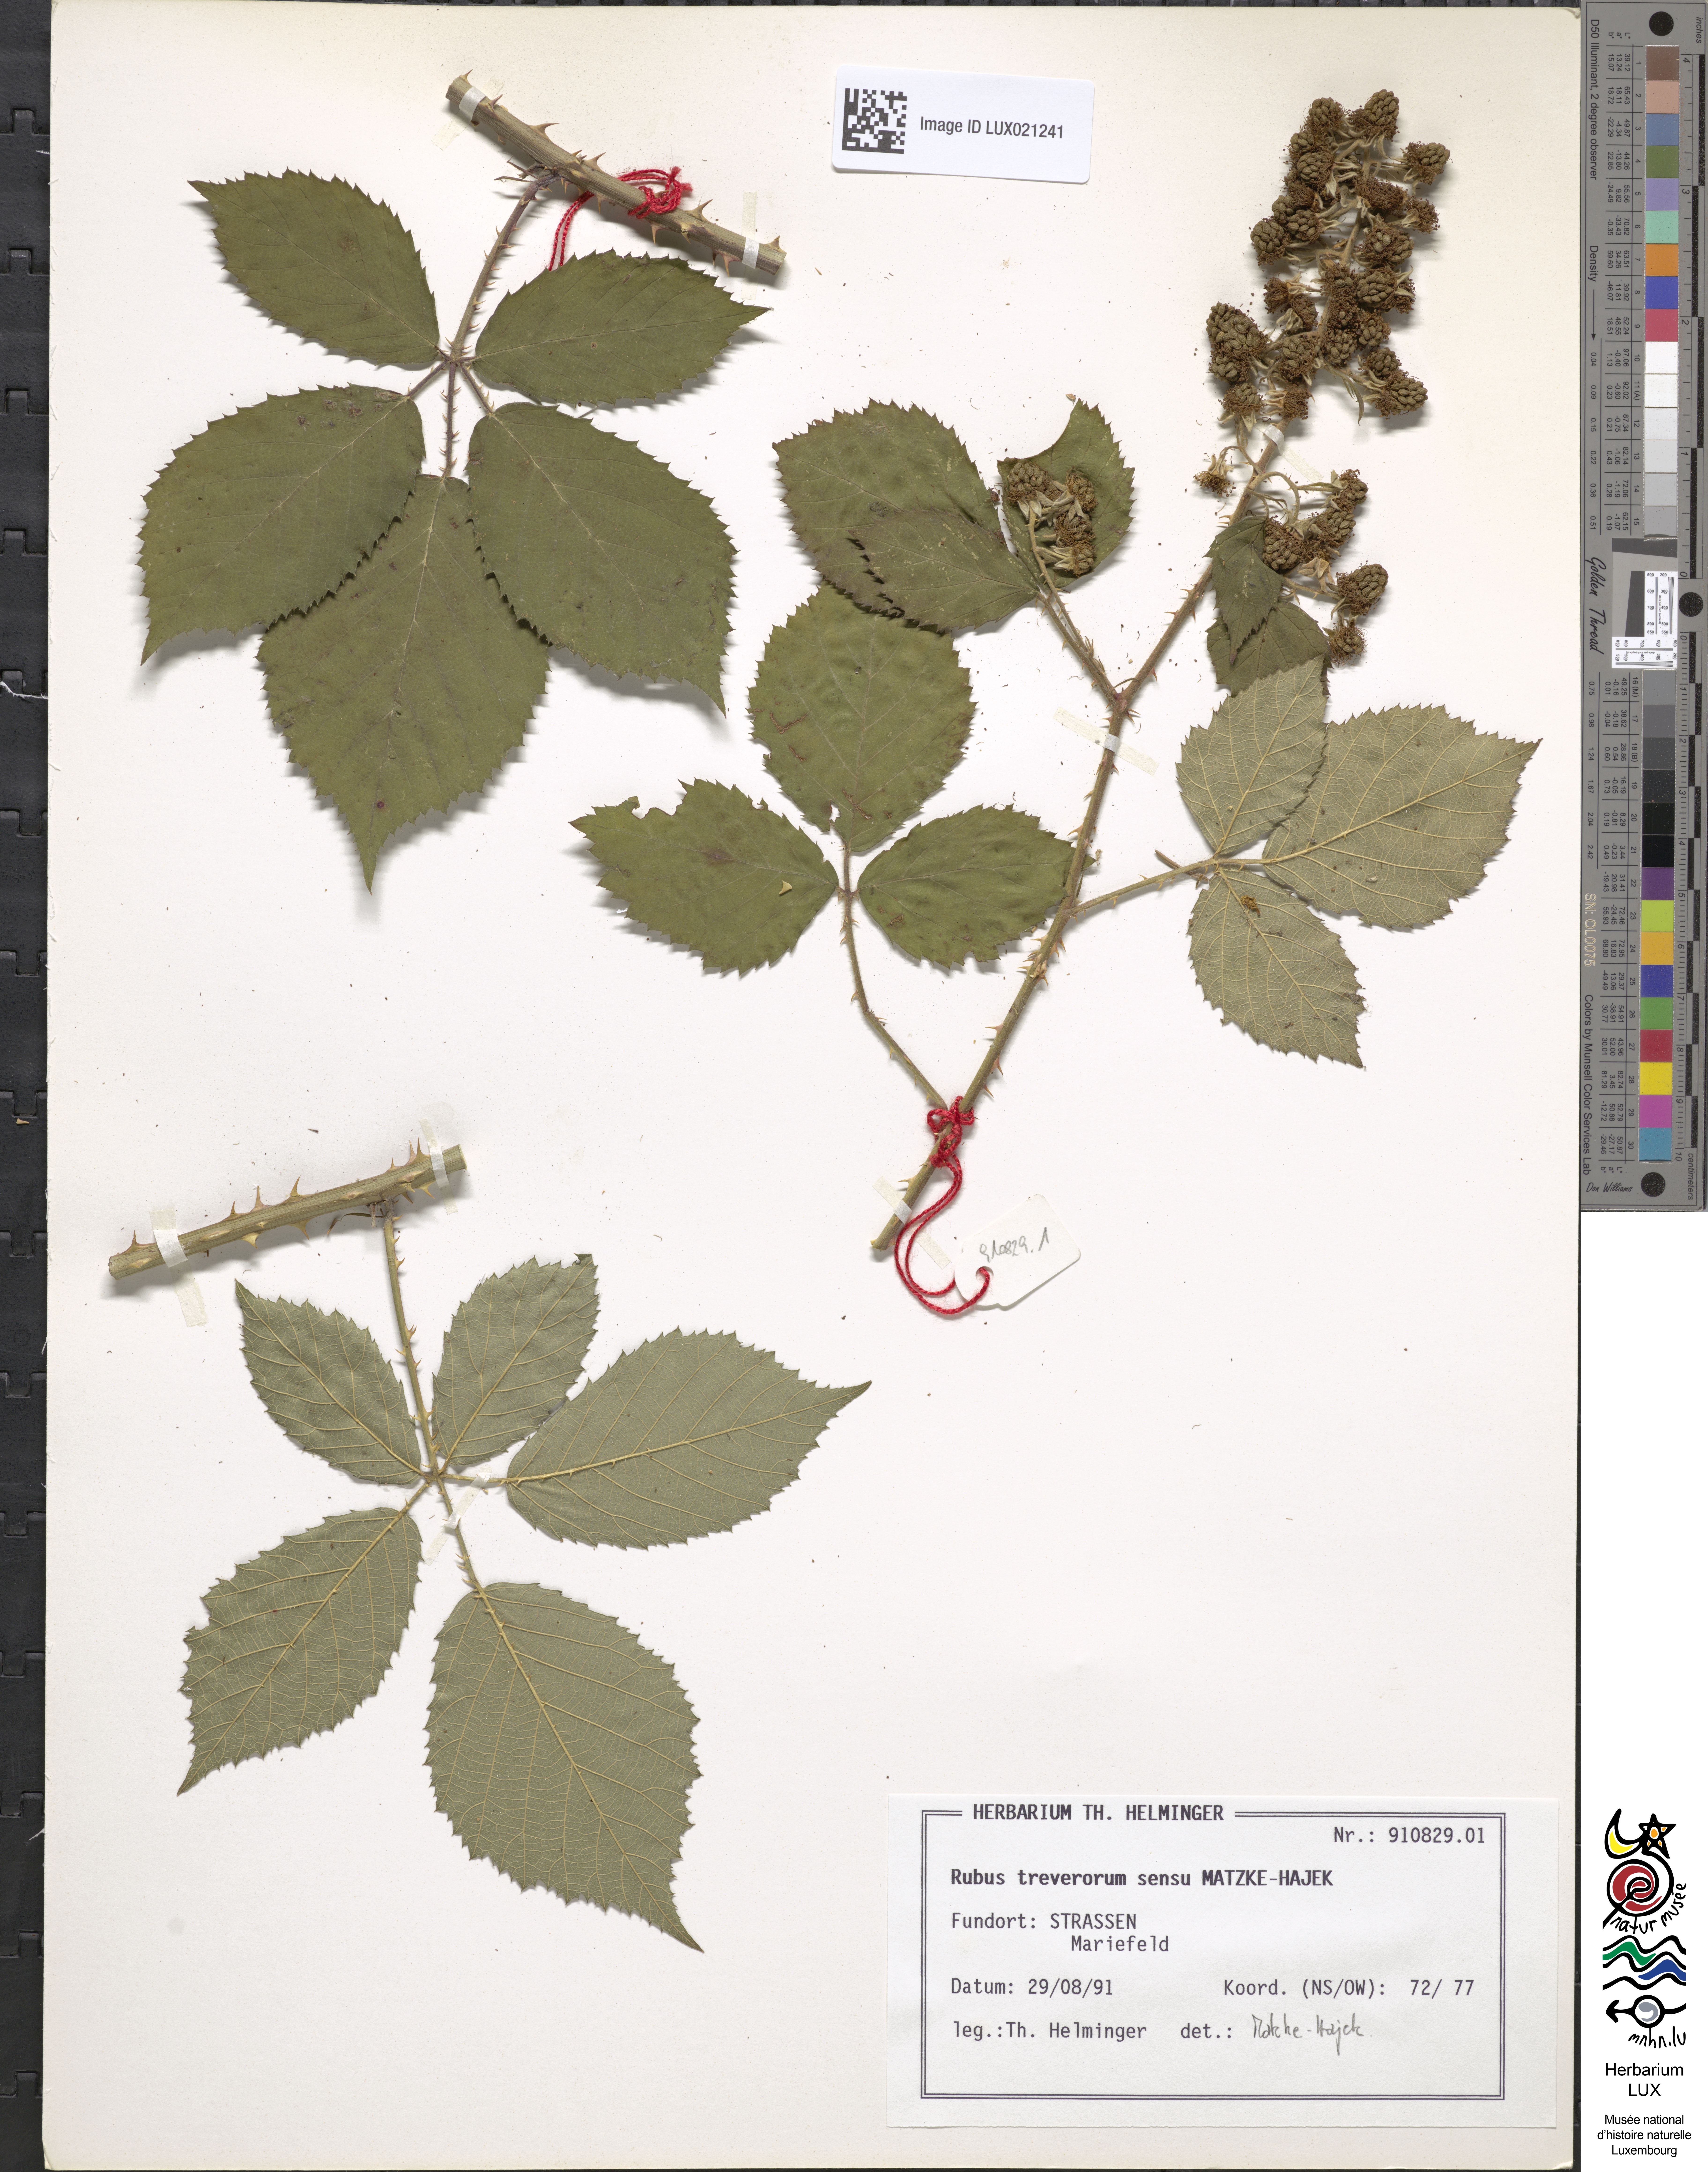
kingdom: Plantae
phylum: Tracheophyta
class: Magnoliopsida
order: Rosales
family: Rosaceae
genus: Rubus
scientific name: Rubus
